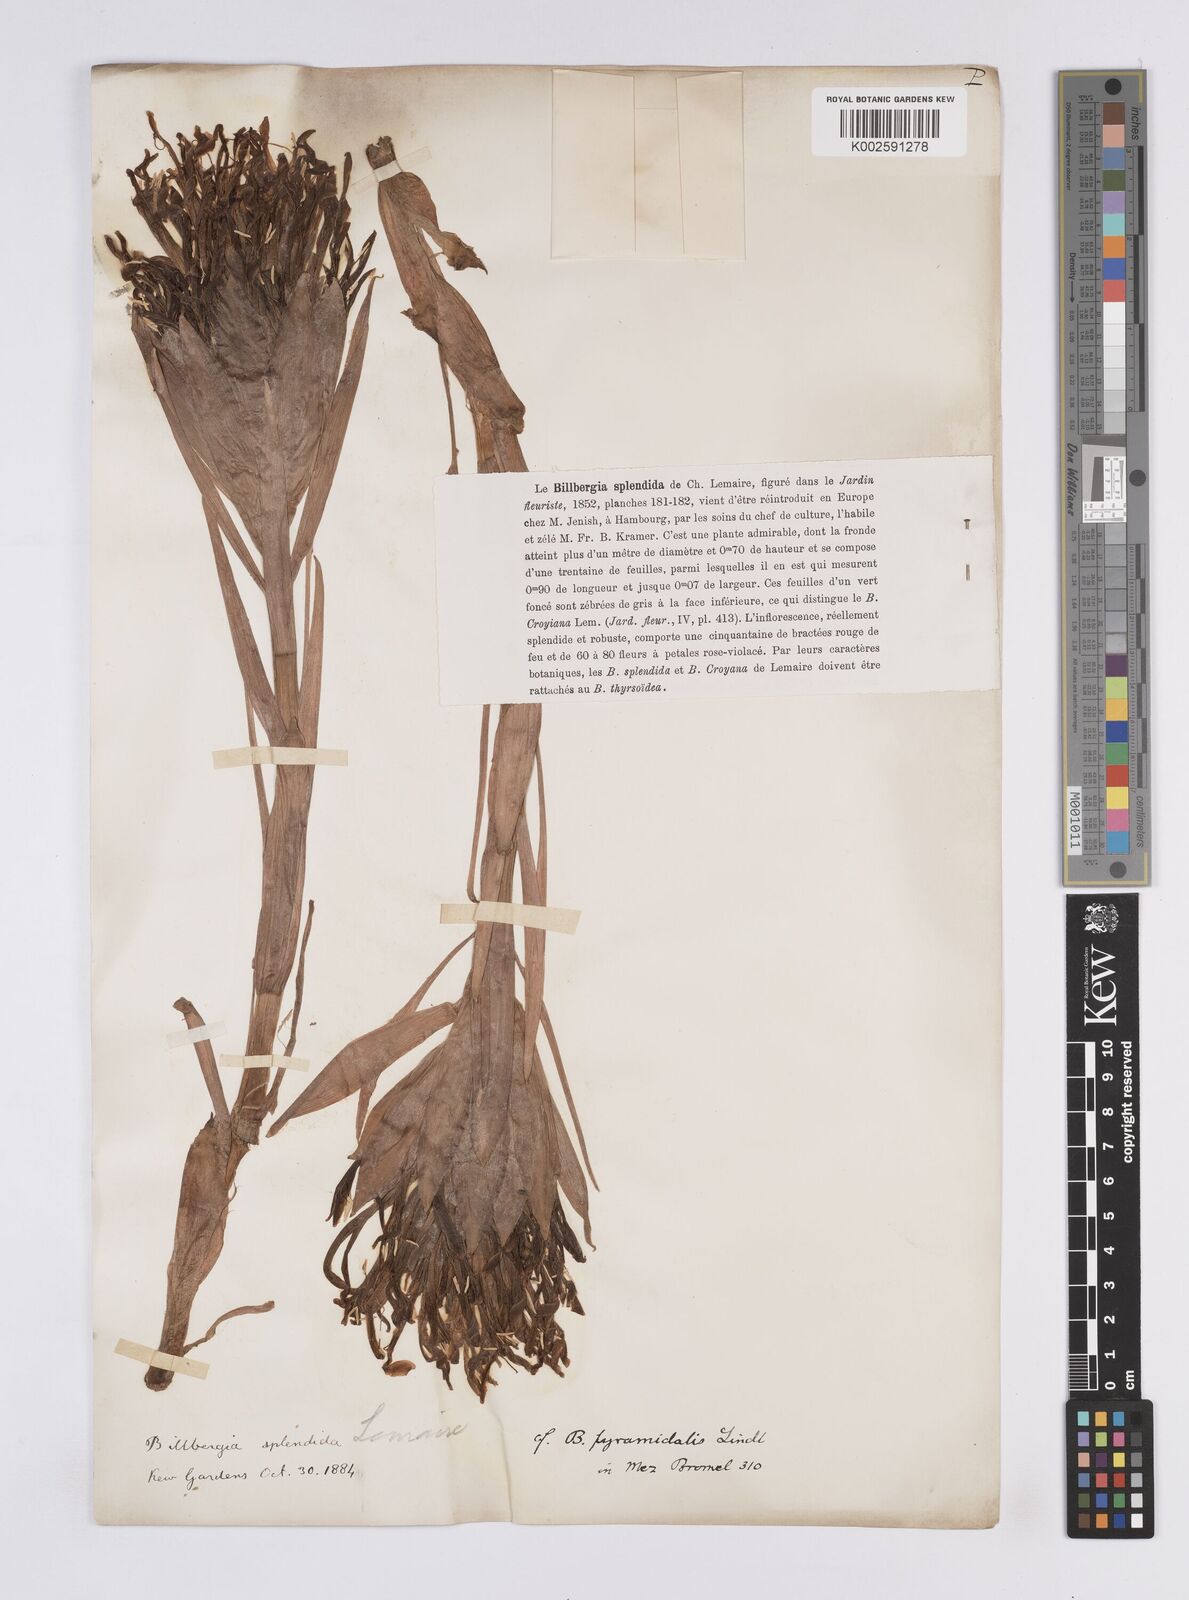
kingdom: Plantae
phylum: Tracheophyta
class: Liliopsida
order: Poales
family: Bromeliaceae
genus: Billbergia
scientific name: Billbergia pyramidalis
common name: Foolproofplant
